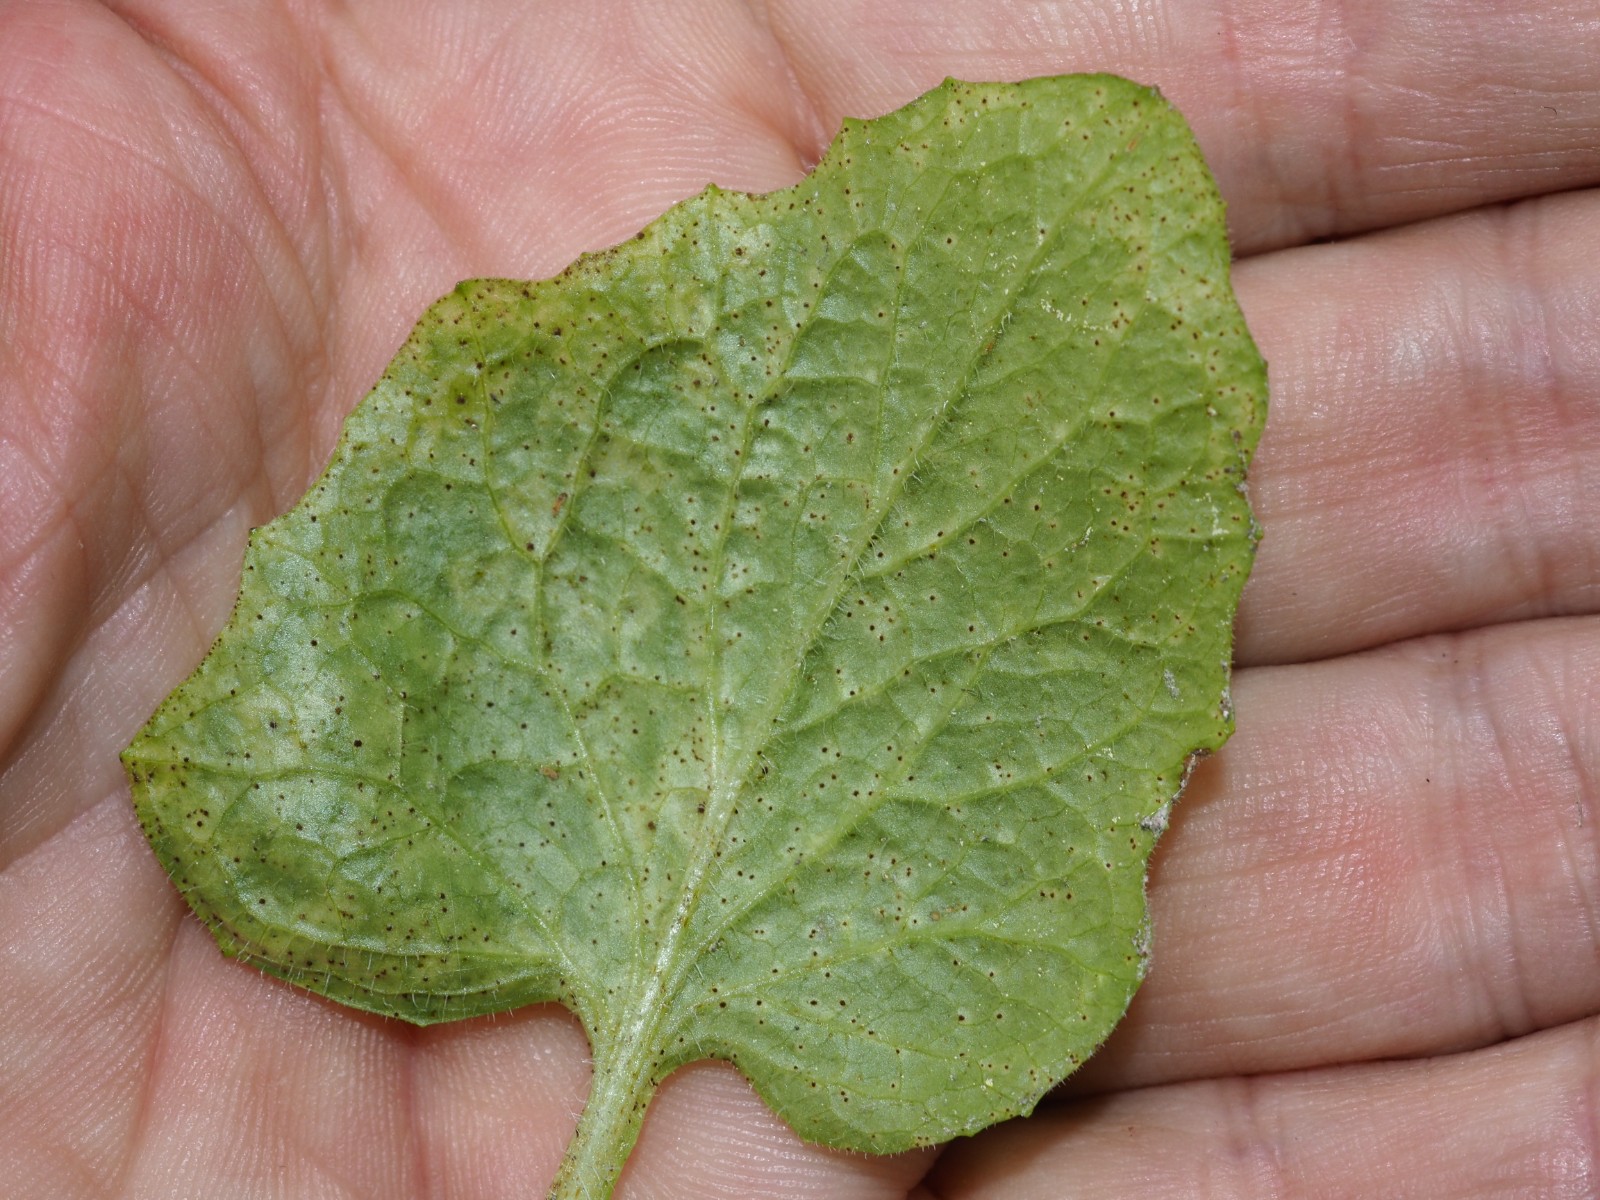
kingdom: Fungi
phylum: Basidiomycota
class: Pucciniomycetes
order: Pucciniales
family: Pucciniaceae
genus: Puccinia
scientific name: Puccinia lapsanae
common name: Nipplewort rust
